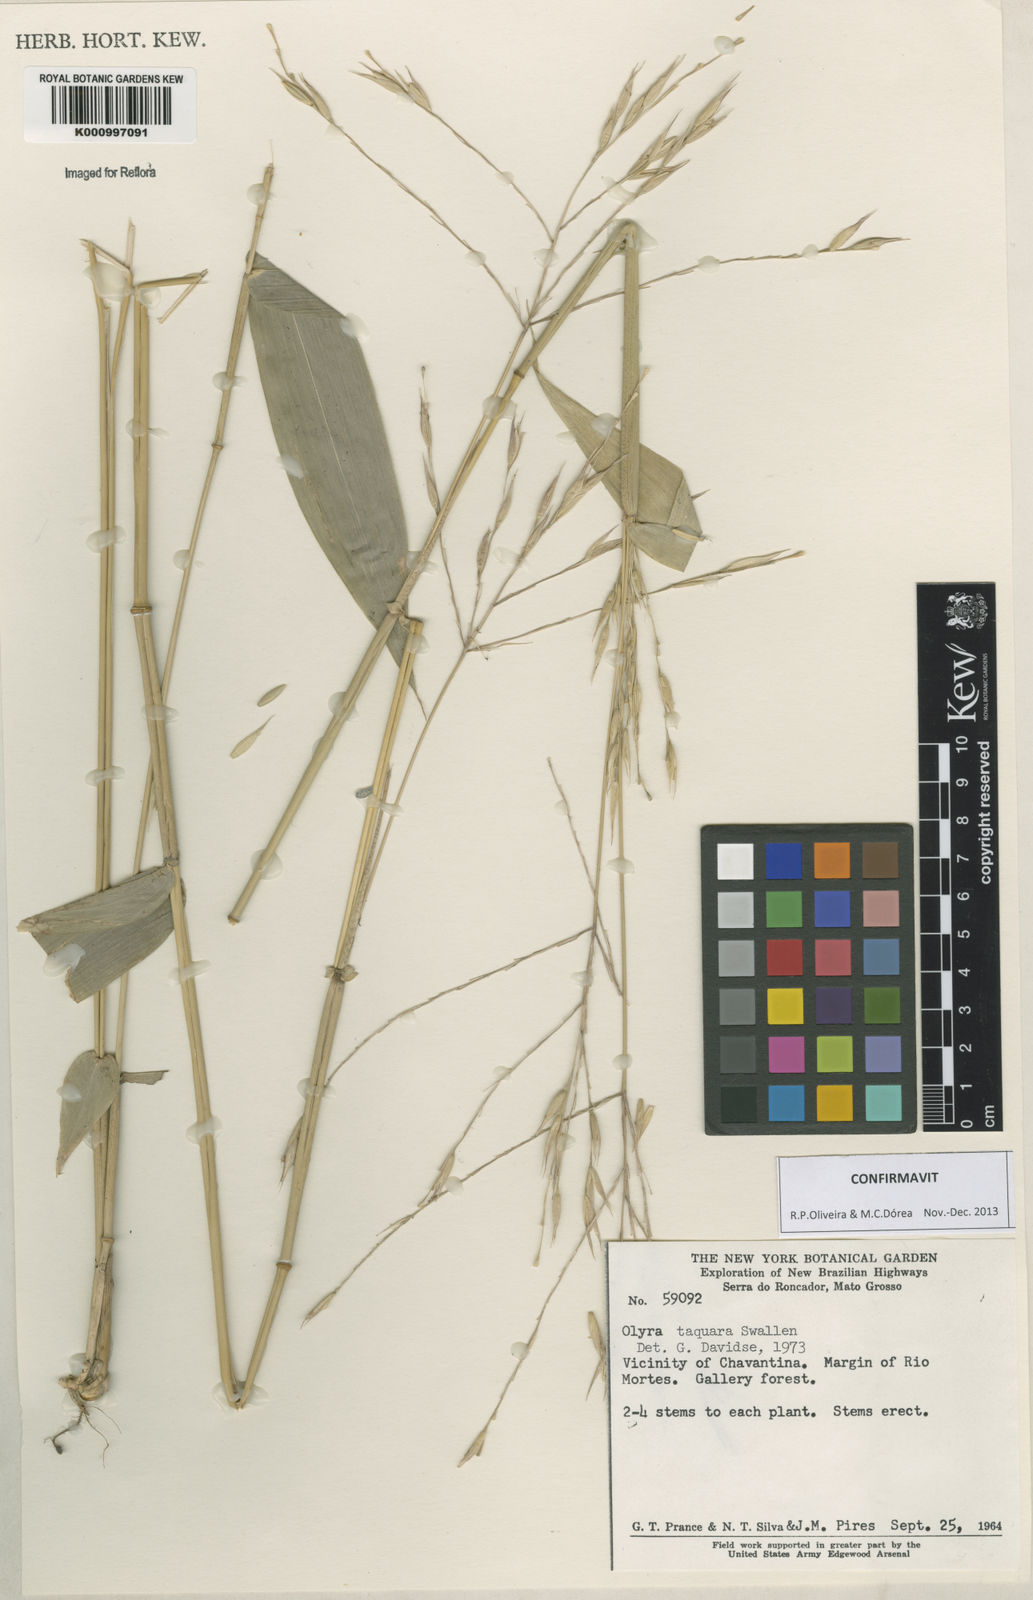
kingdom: Plantae
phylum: Tracheophyta
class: Liliopsida
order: Poales
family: Poaceae
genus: Olyra
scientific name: Olyra taquara
